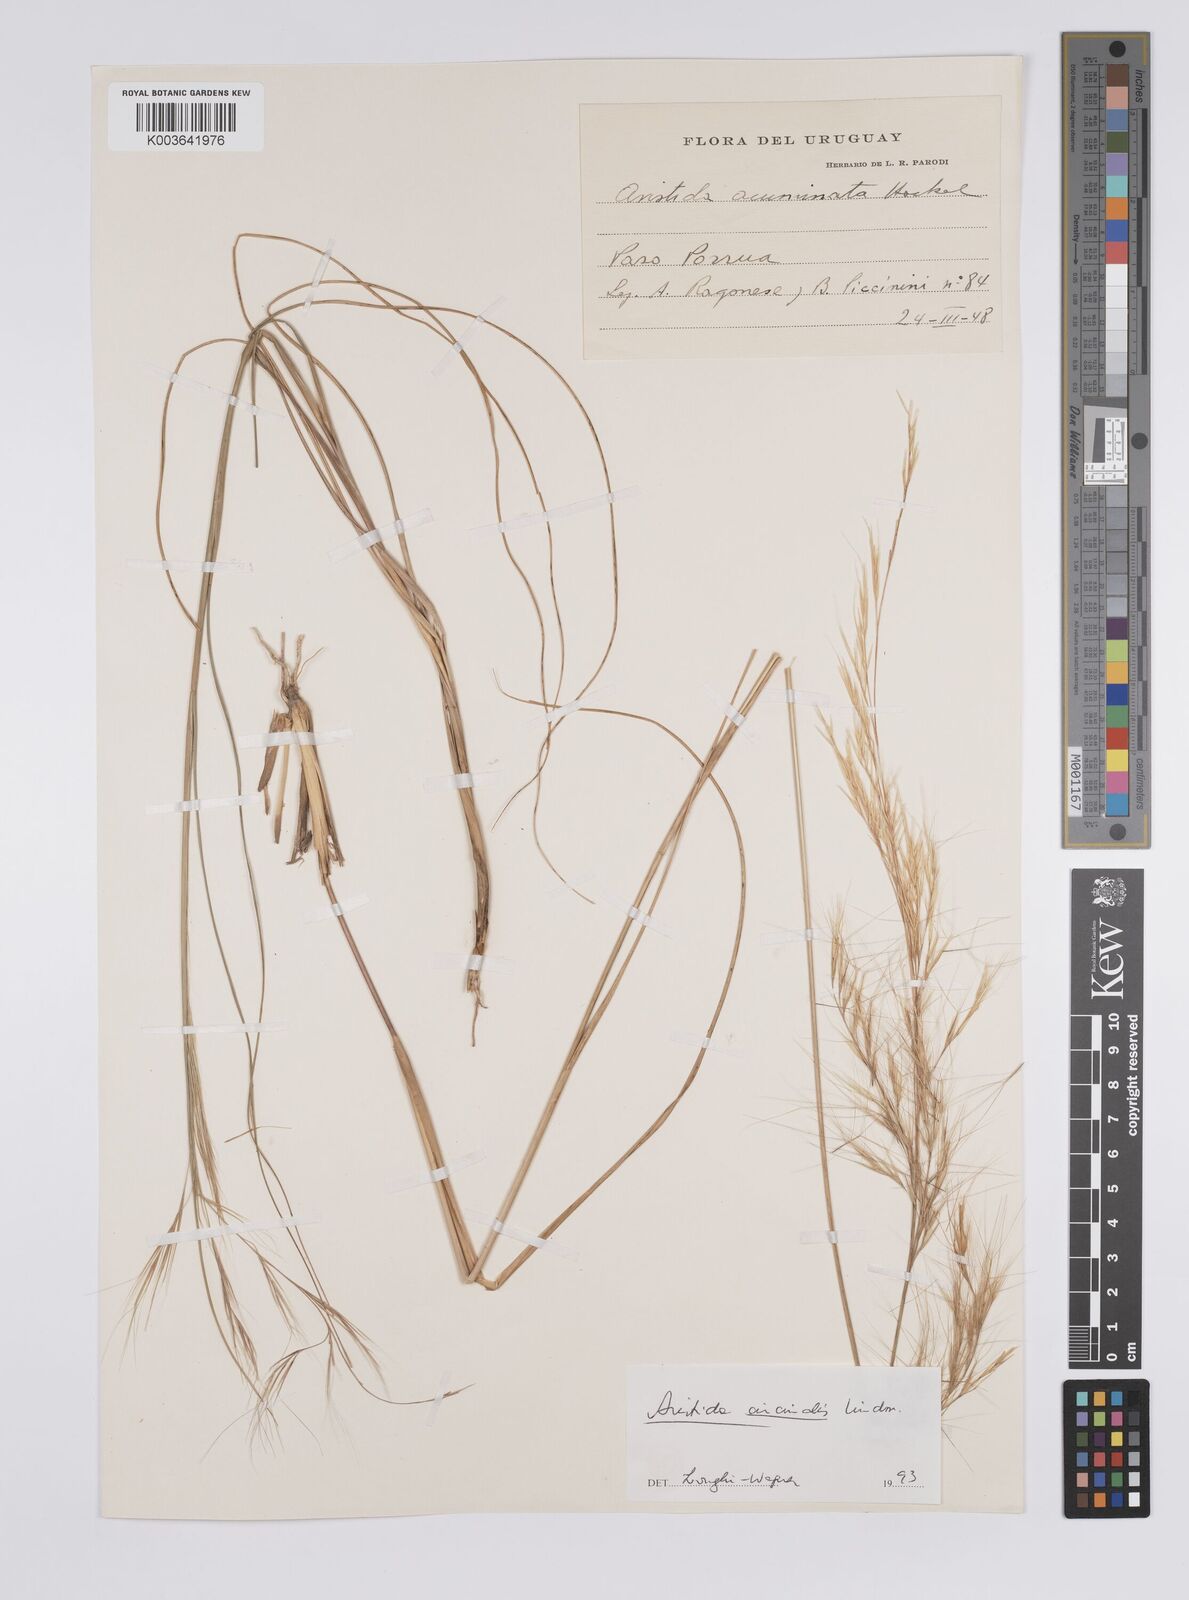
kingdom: Plantae
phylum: Tracheophyta
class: Liliopsida
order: Poales
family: Poaceae
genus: Aristida
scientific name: Aristida circinalis
